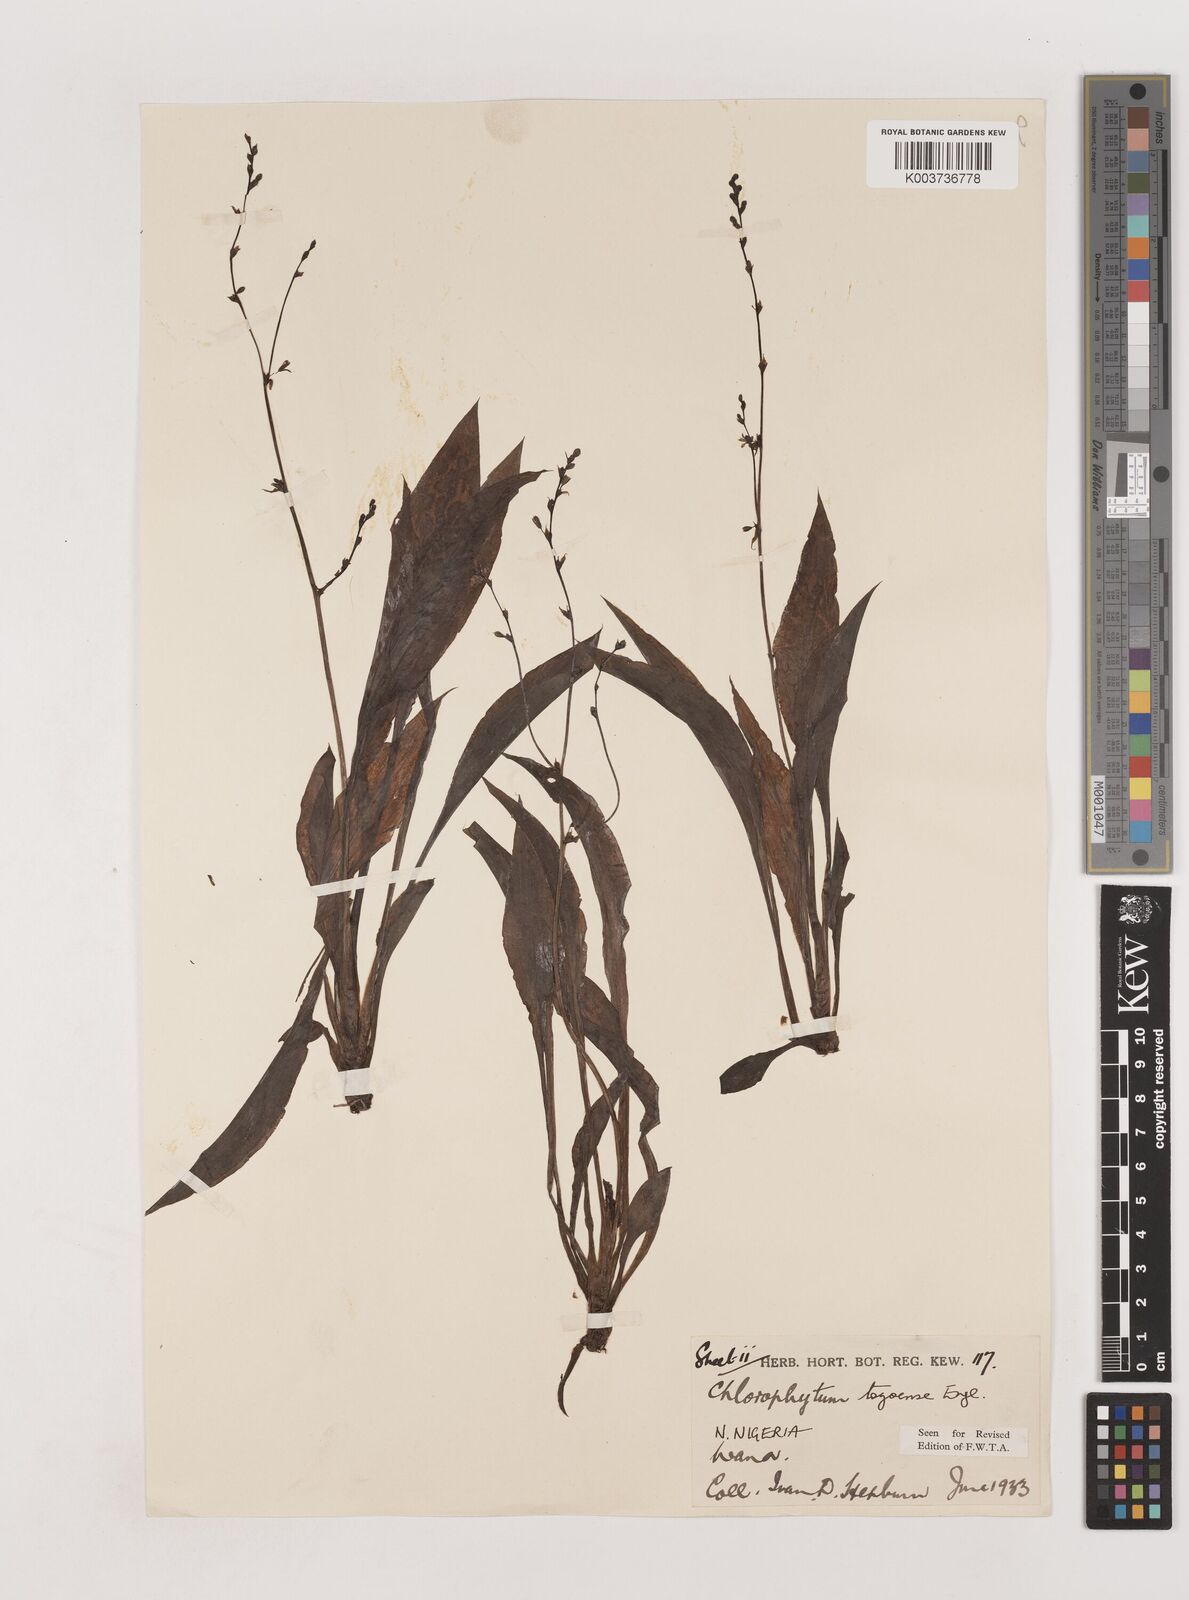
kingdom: Plantae
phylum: Tracheophyta
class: Liliopsida
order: Asparagales
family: Asparagaceae
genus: Chlorophytum
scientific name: Chlorophytum lancifolium
